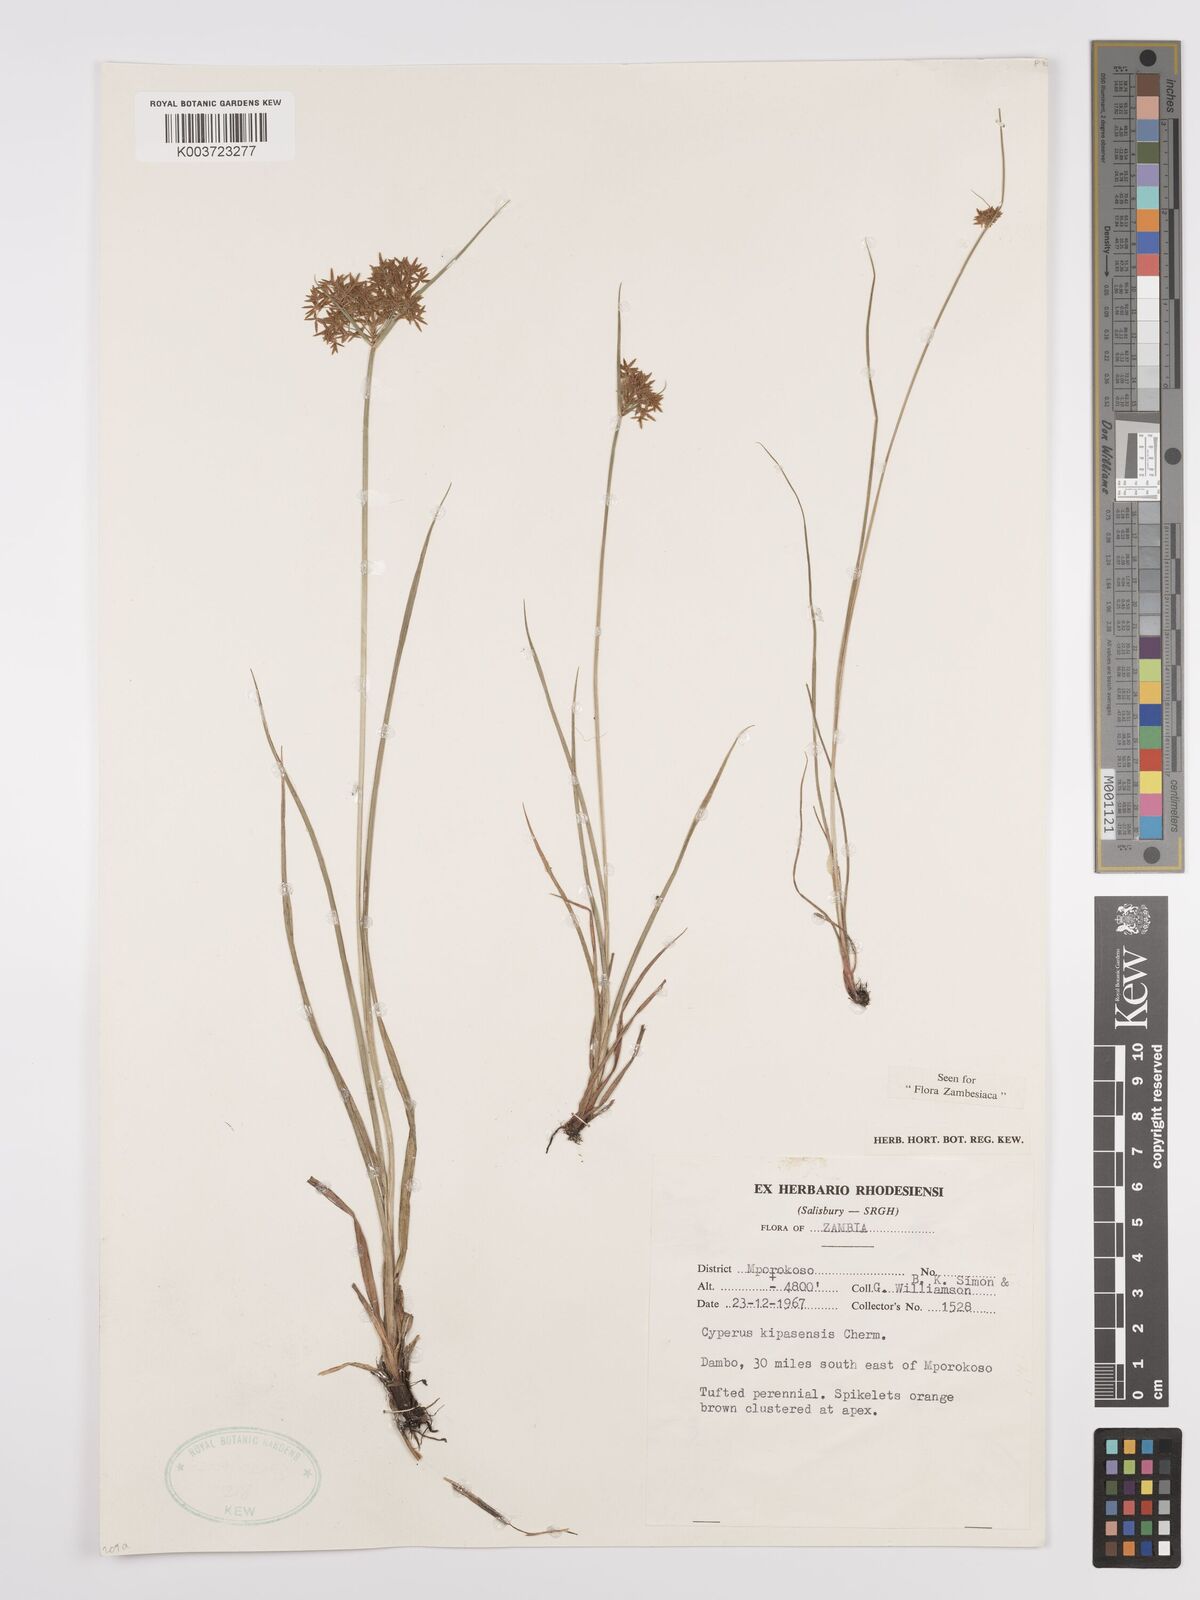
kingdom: Plantae
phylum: Tracheophyta
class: Liliopsida
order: Poales
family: Cyperaceae
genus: Cyperus
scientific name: Cyperus kipasensis
